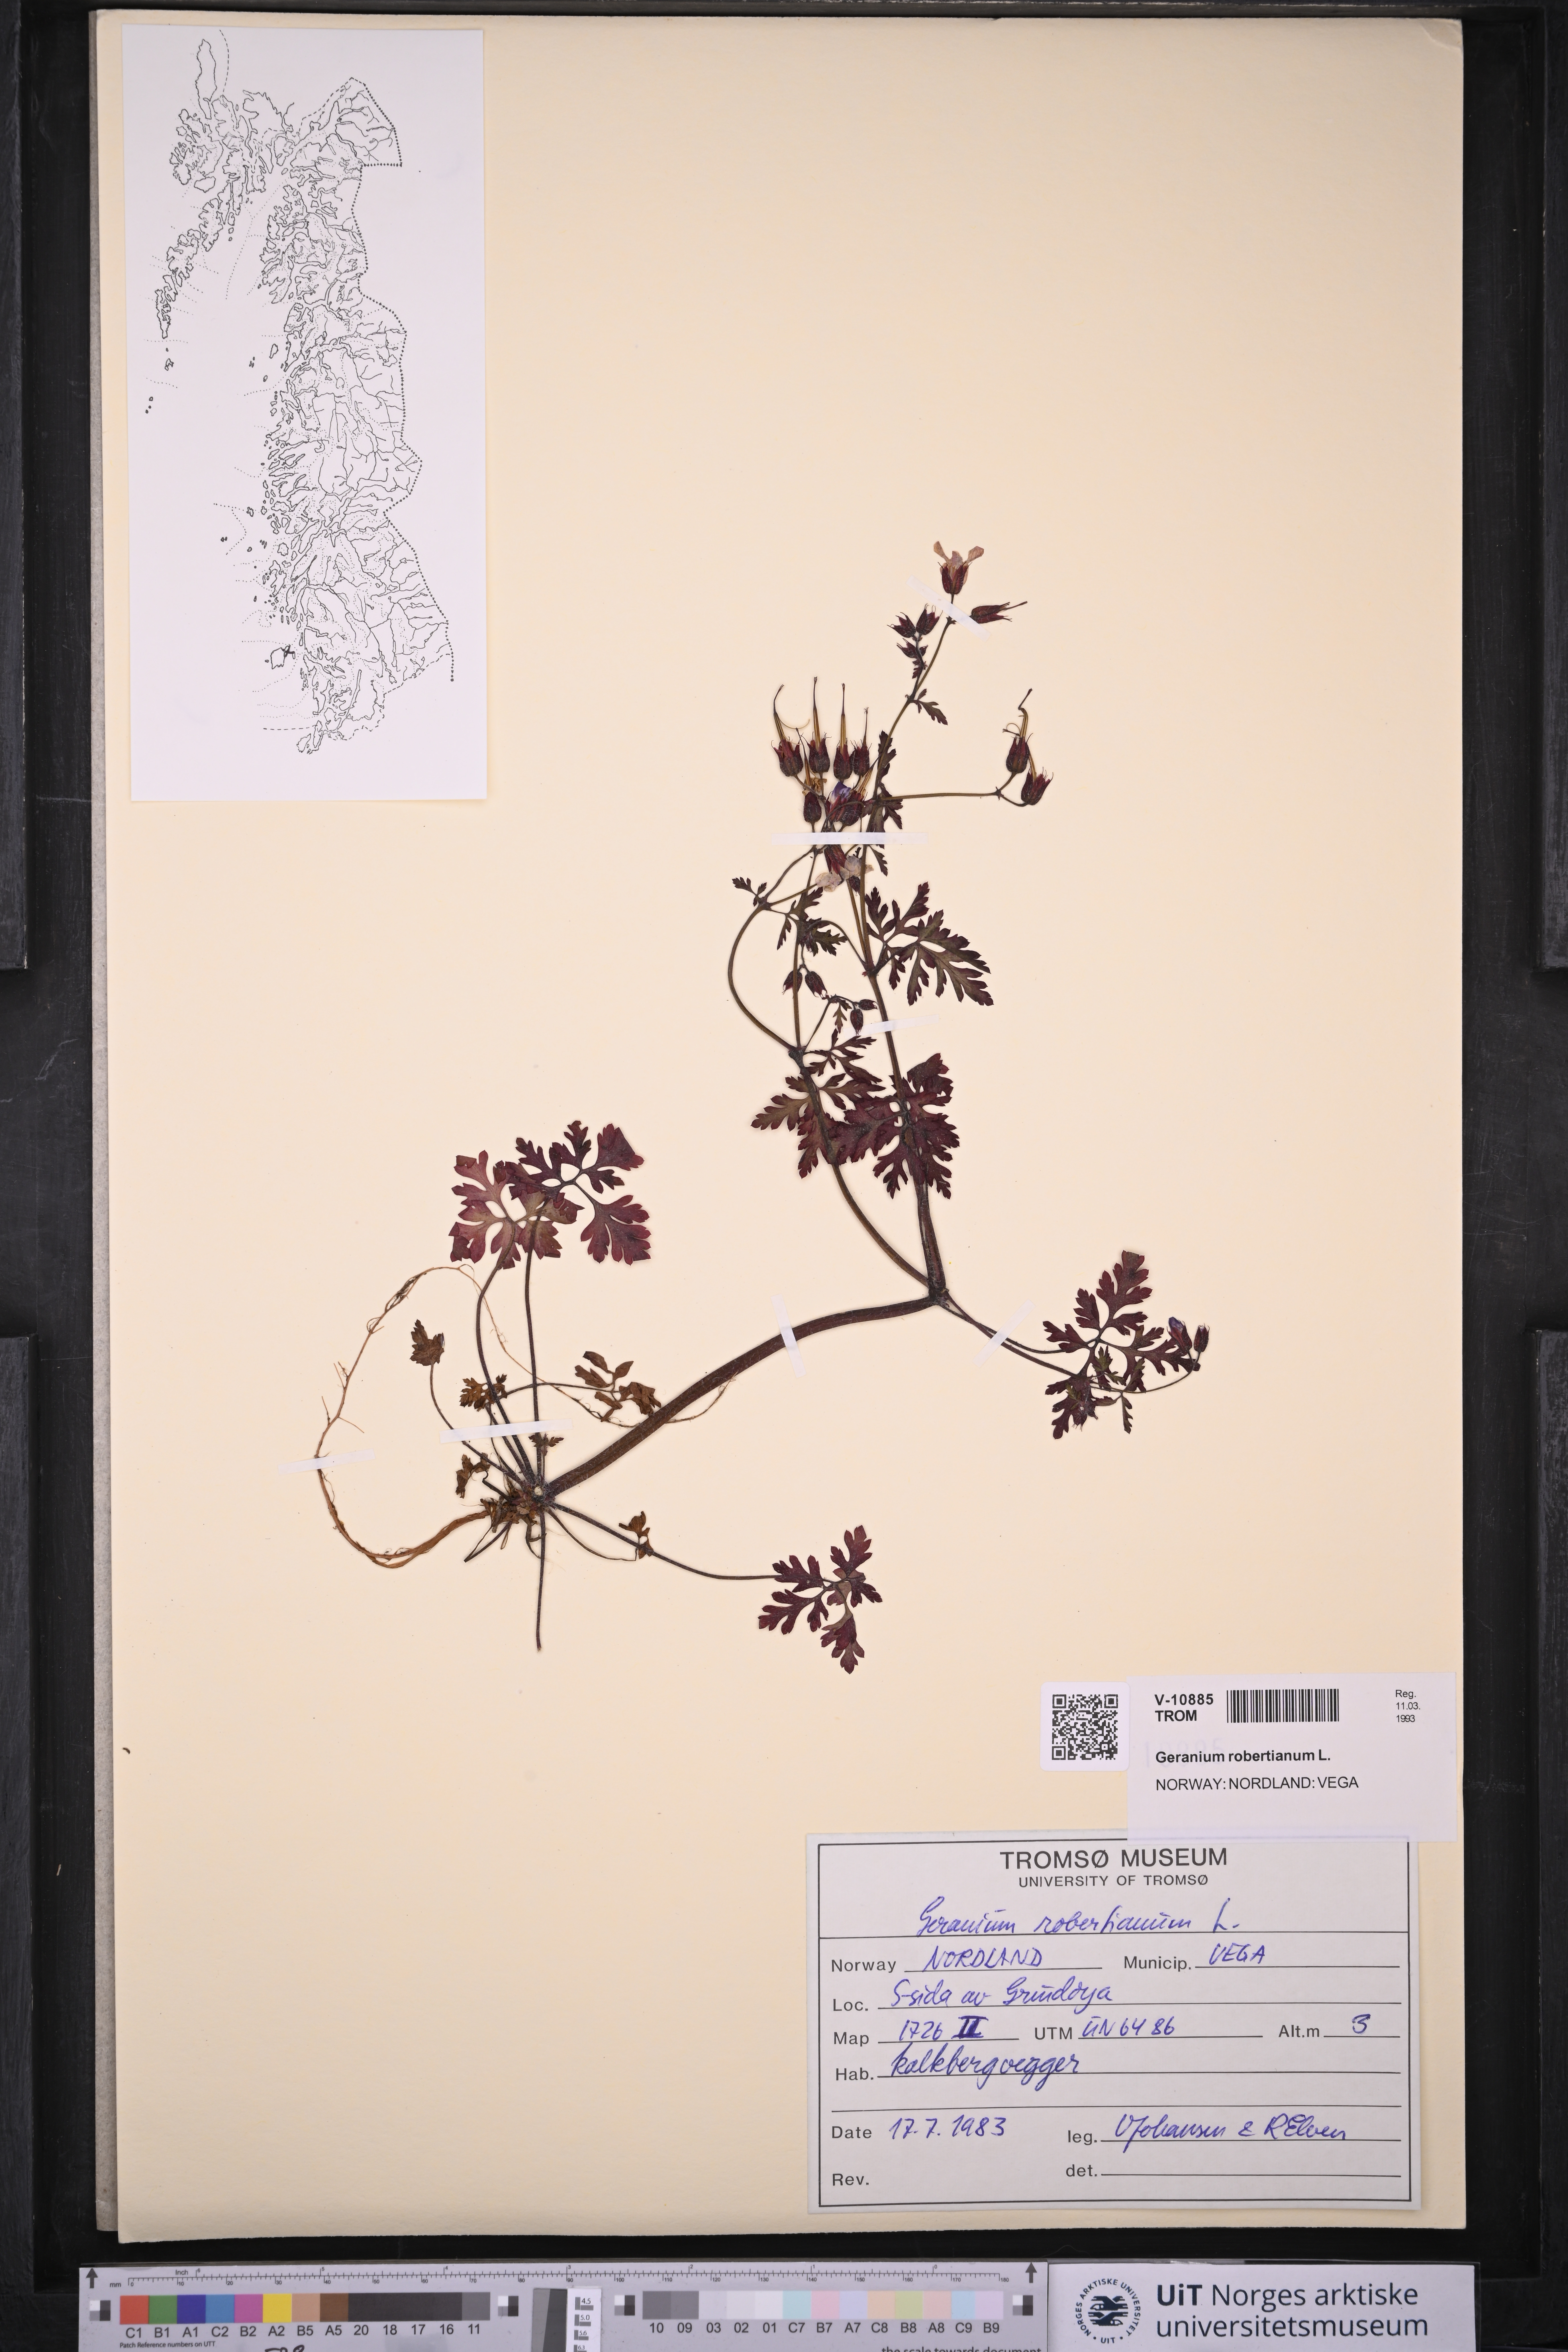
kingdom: Plantae
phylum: Tracheophyta
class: Magnoliopsida
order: Geraniales
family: Geraniaceae
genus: Geranium
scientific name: Geranium robertianum
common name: Herb-robert
